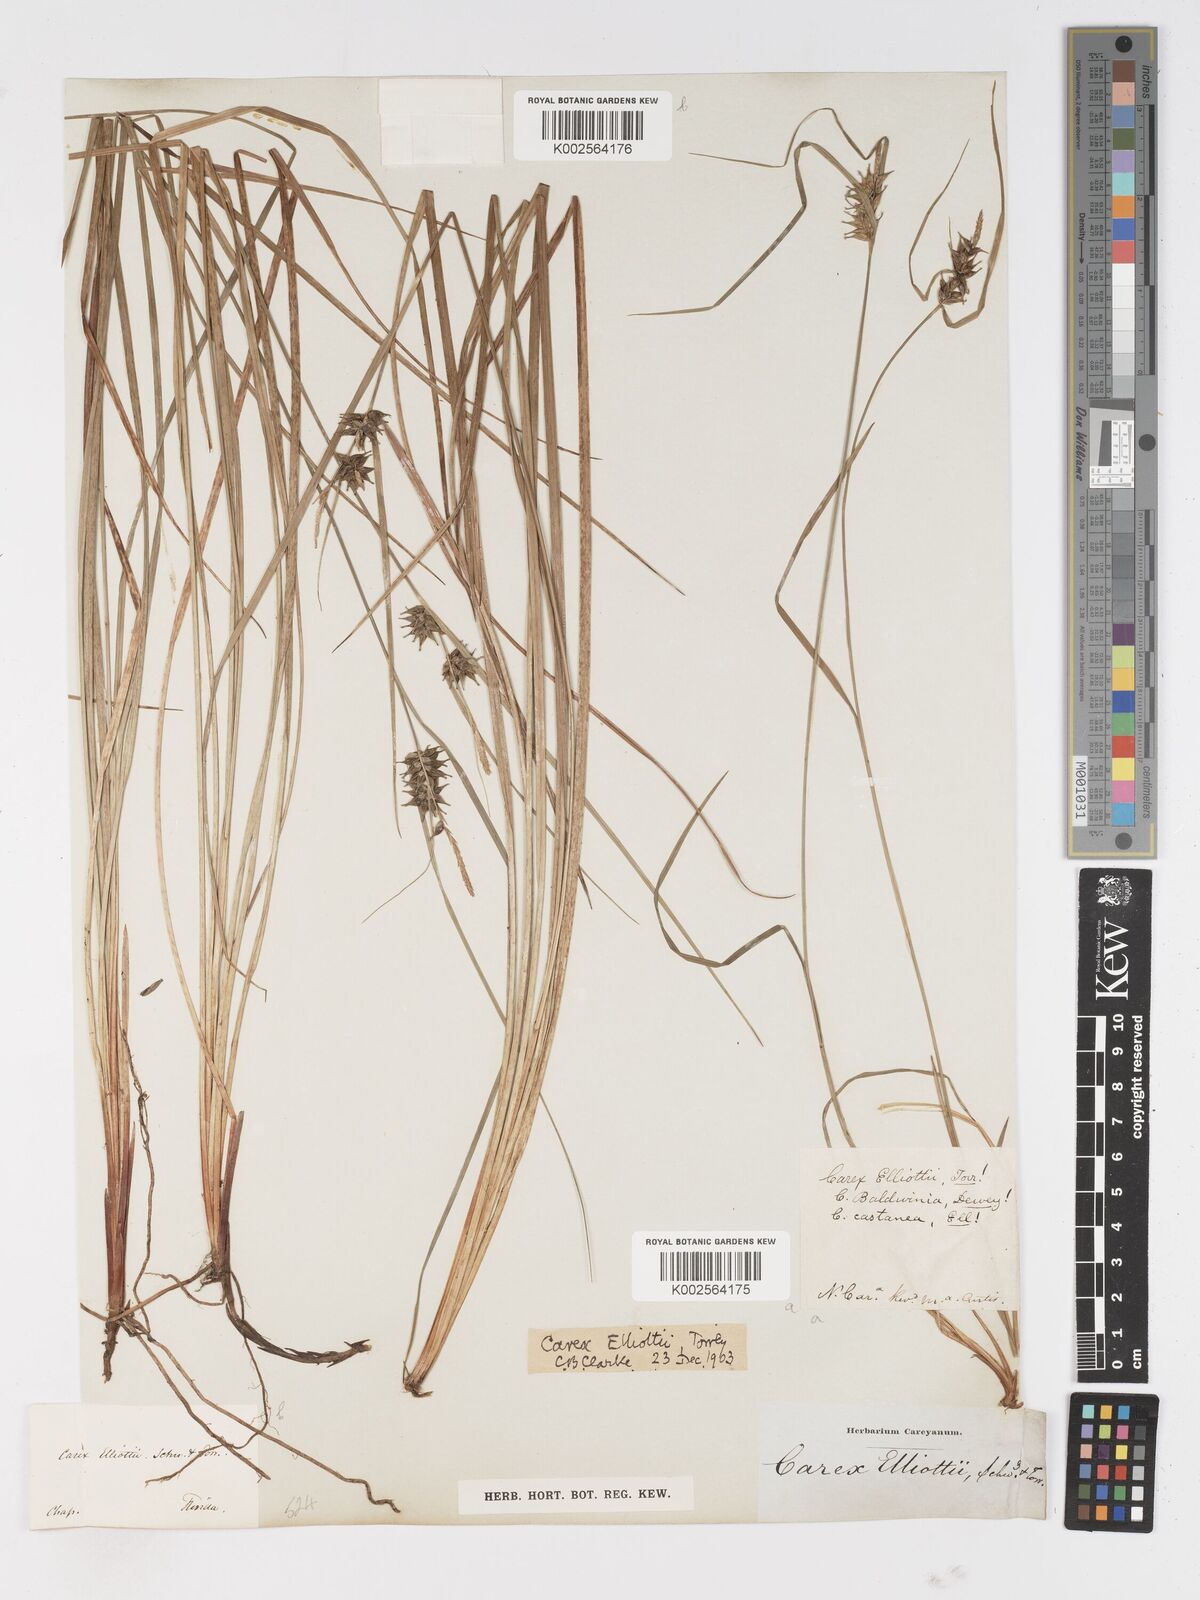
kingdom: Plantae
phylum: Tracheophyta
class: Liliopsida
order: Poales
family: Cyperaceae
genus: Carex
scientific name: Carex elliottii
